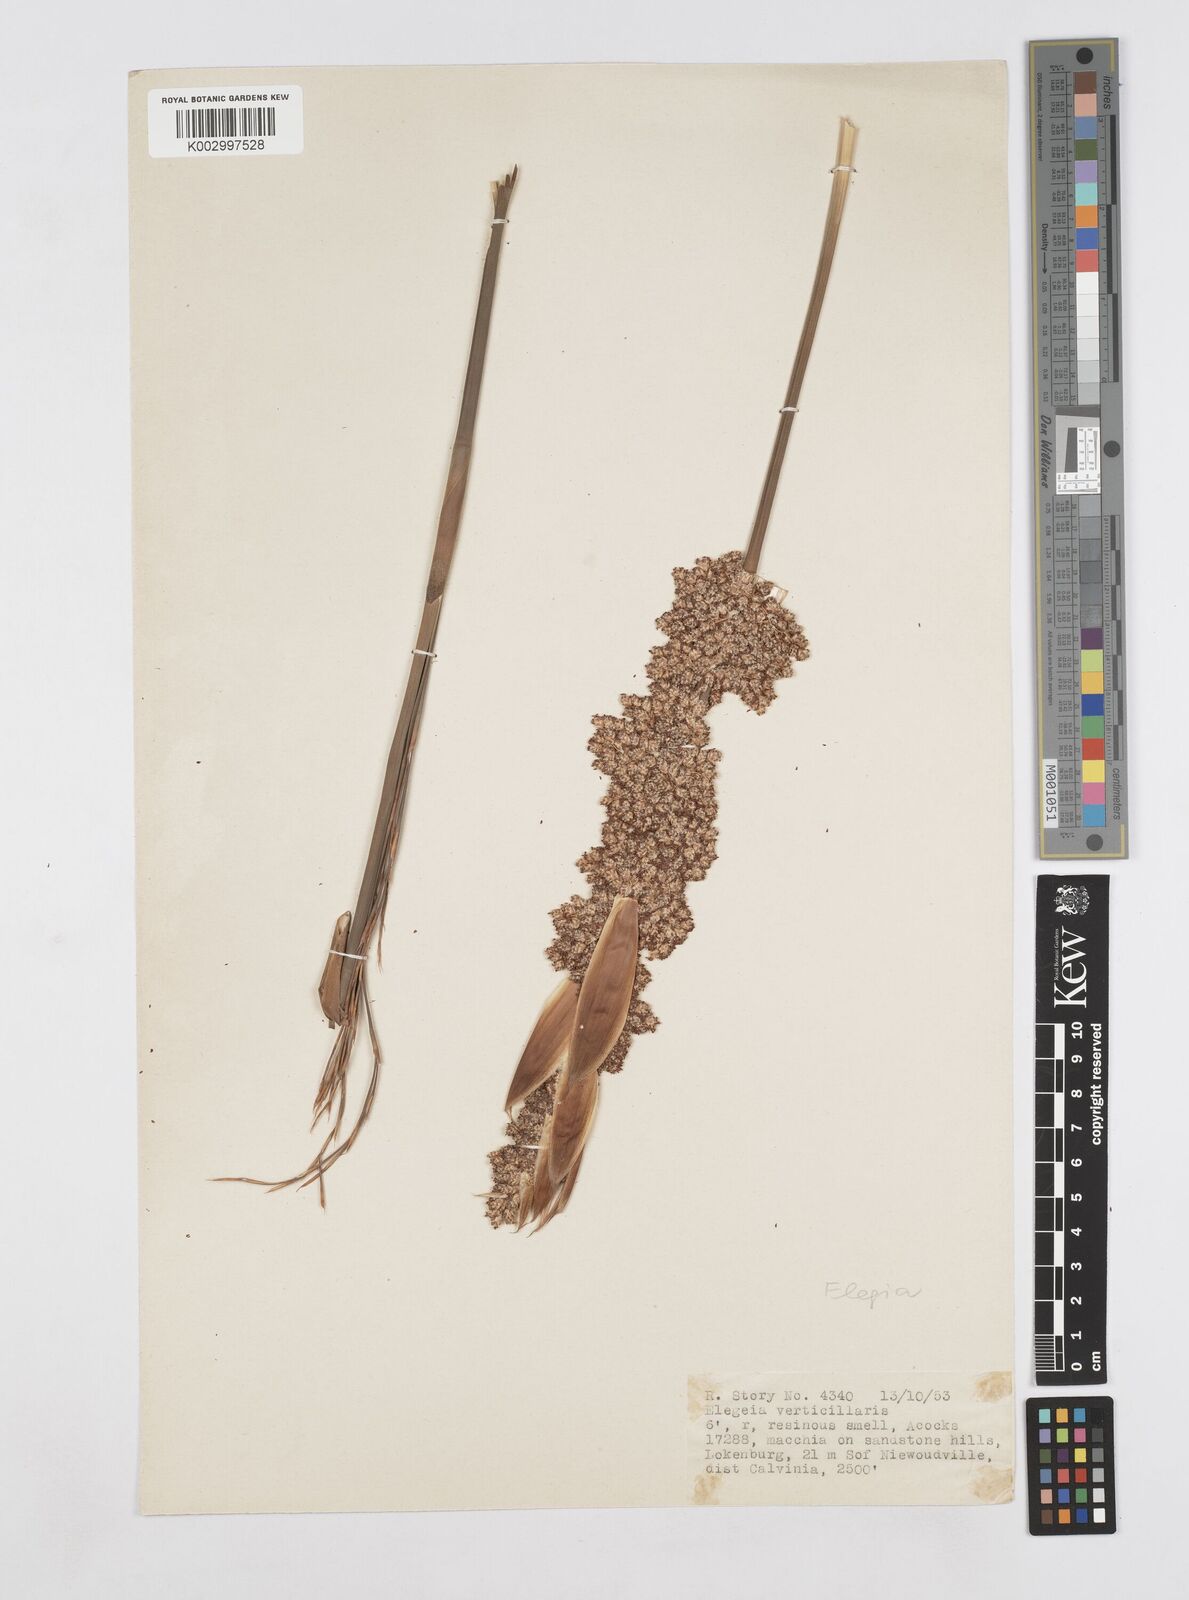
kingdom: Plantae
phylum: Tracheophyta
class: Liliopsida
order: Poales
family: Restionaceae
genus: Elegia
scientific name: Elegia capensis
